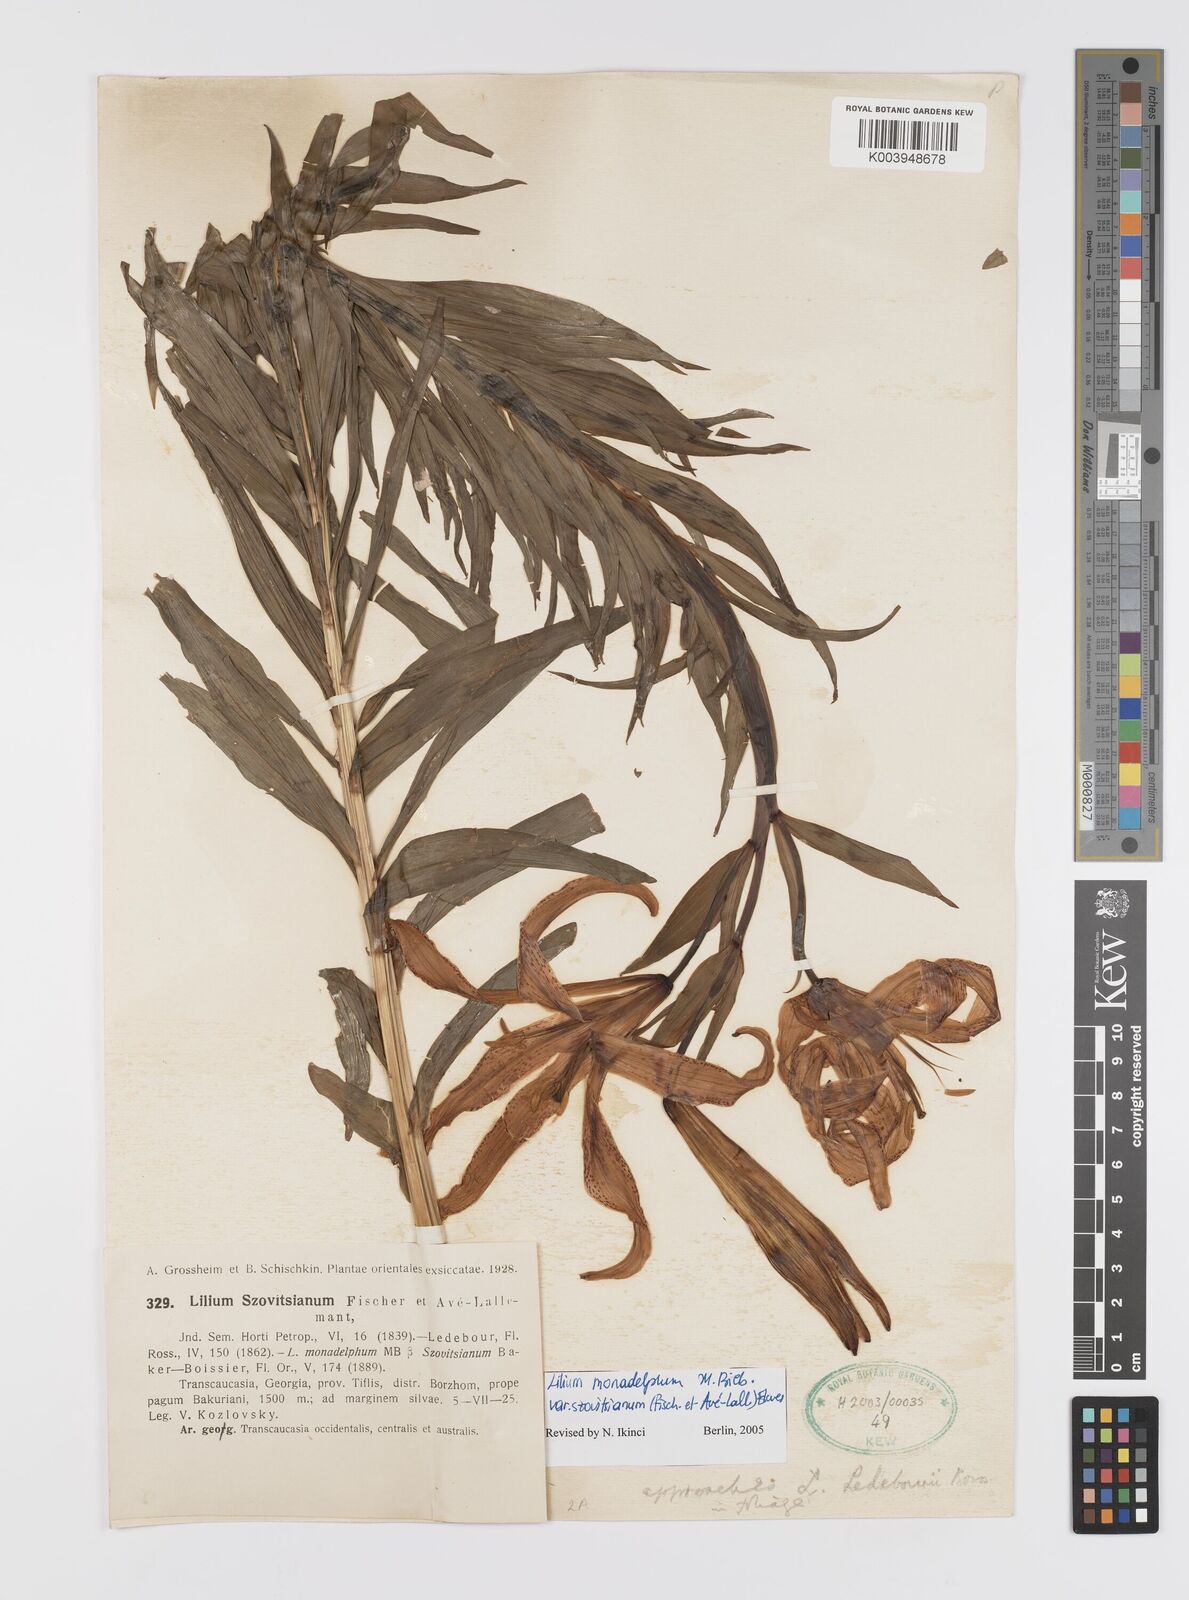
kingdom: Plantae
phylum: Tracheophyta
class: Liliopsida
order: Liliales
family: Liliaceae
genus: Lilium
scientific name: Lilium armenum
